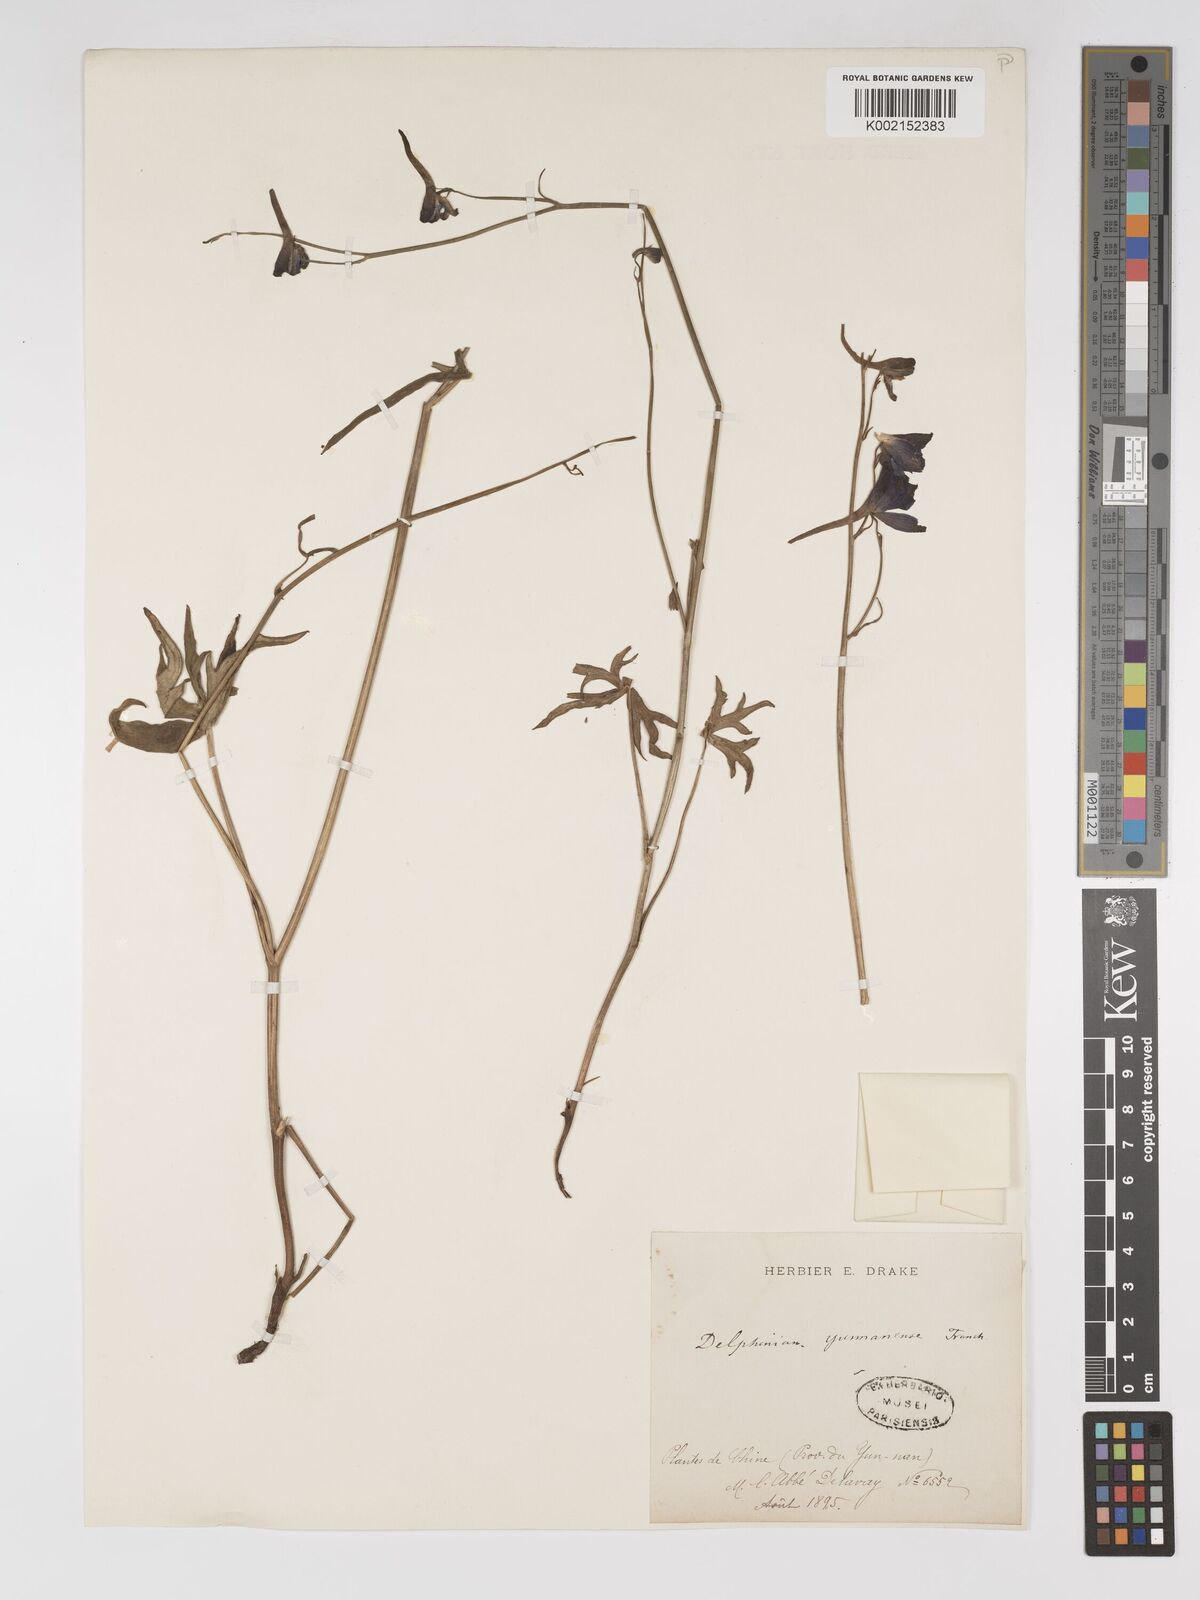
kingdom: Plantae
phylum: Tracheophyta
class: Magnoliopsida
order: Ranunculales
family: Ranunculaceae
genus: Delphinium
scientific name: Delphinium yunnanense
